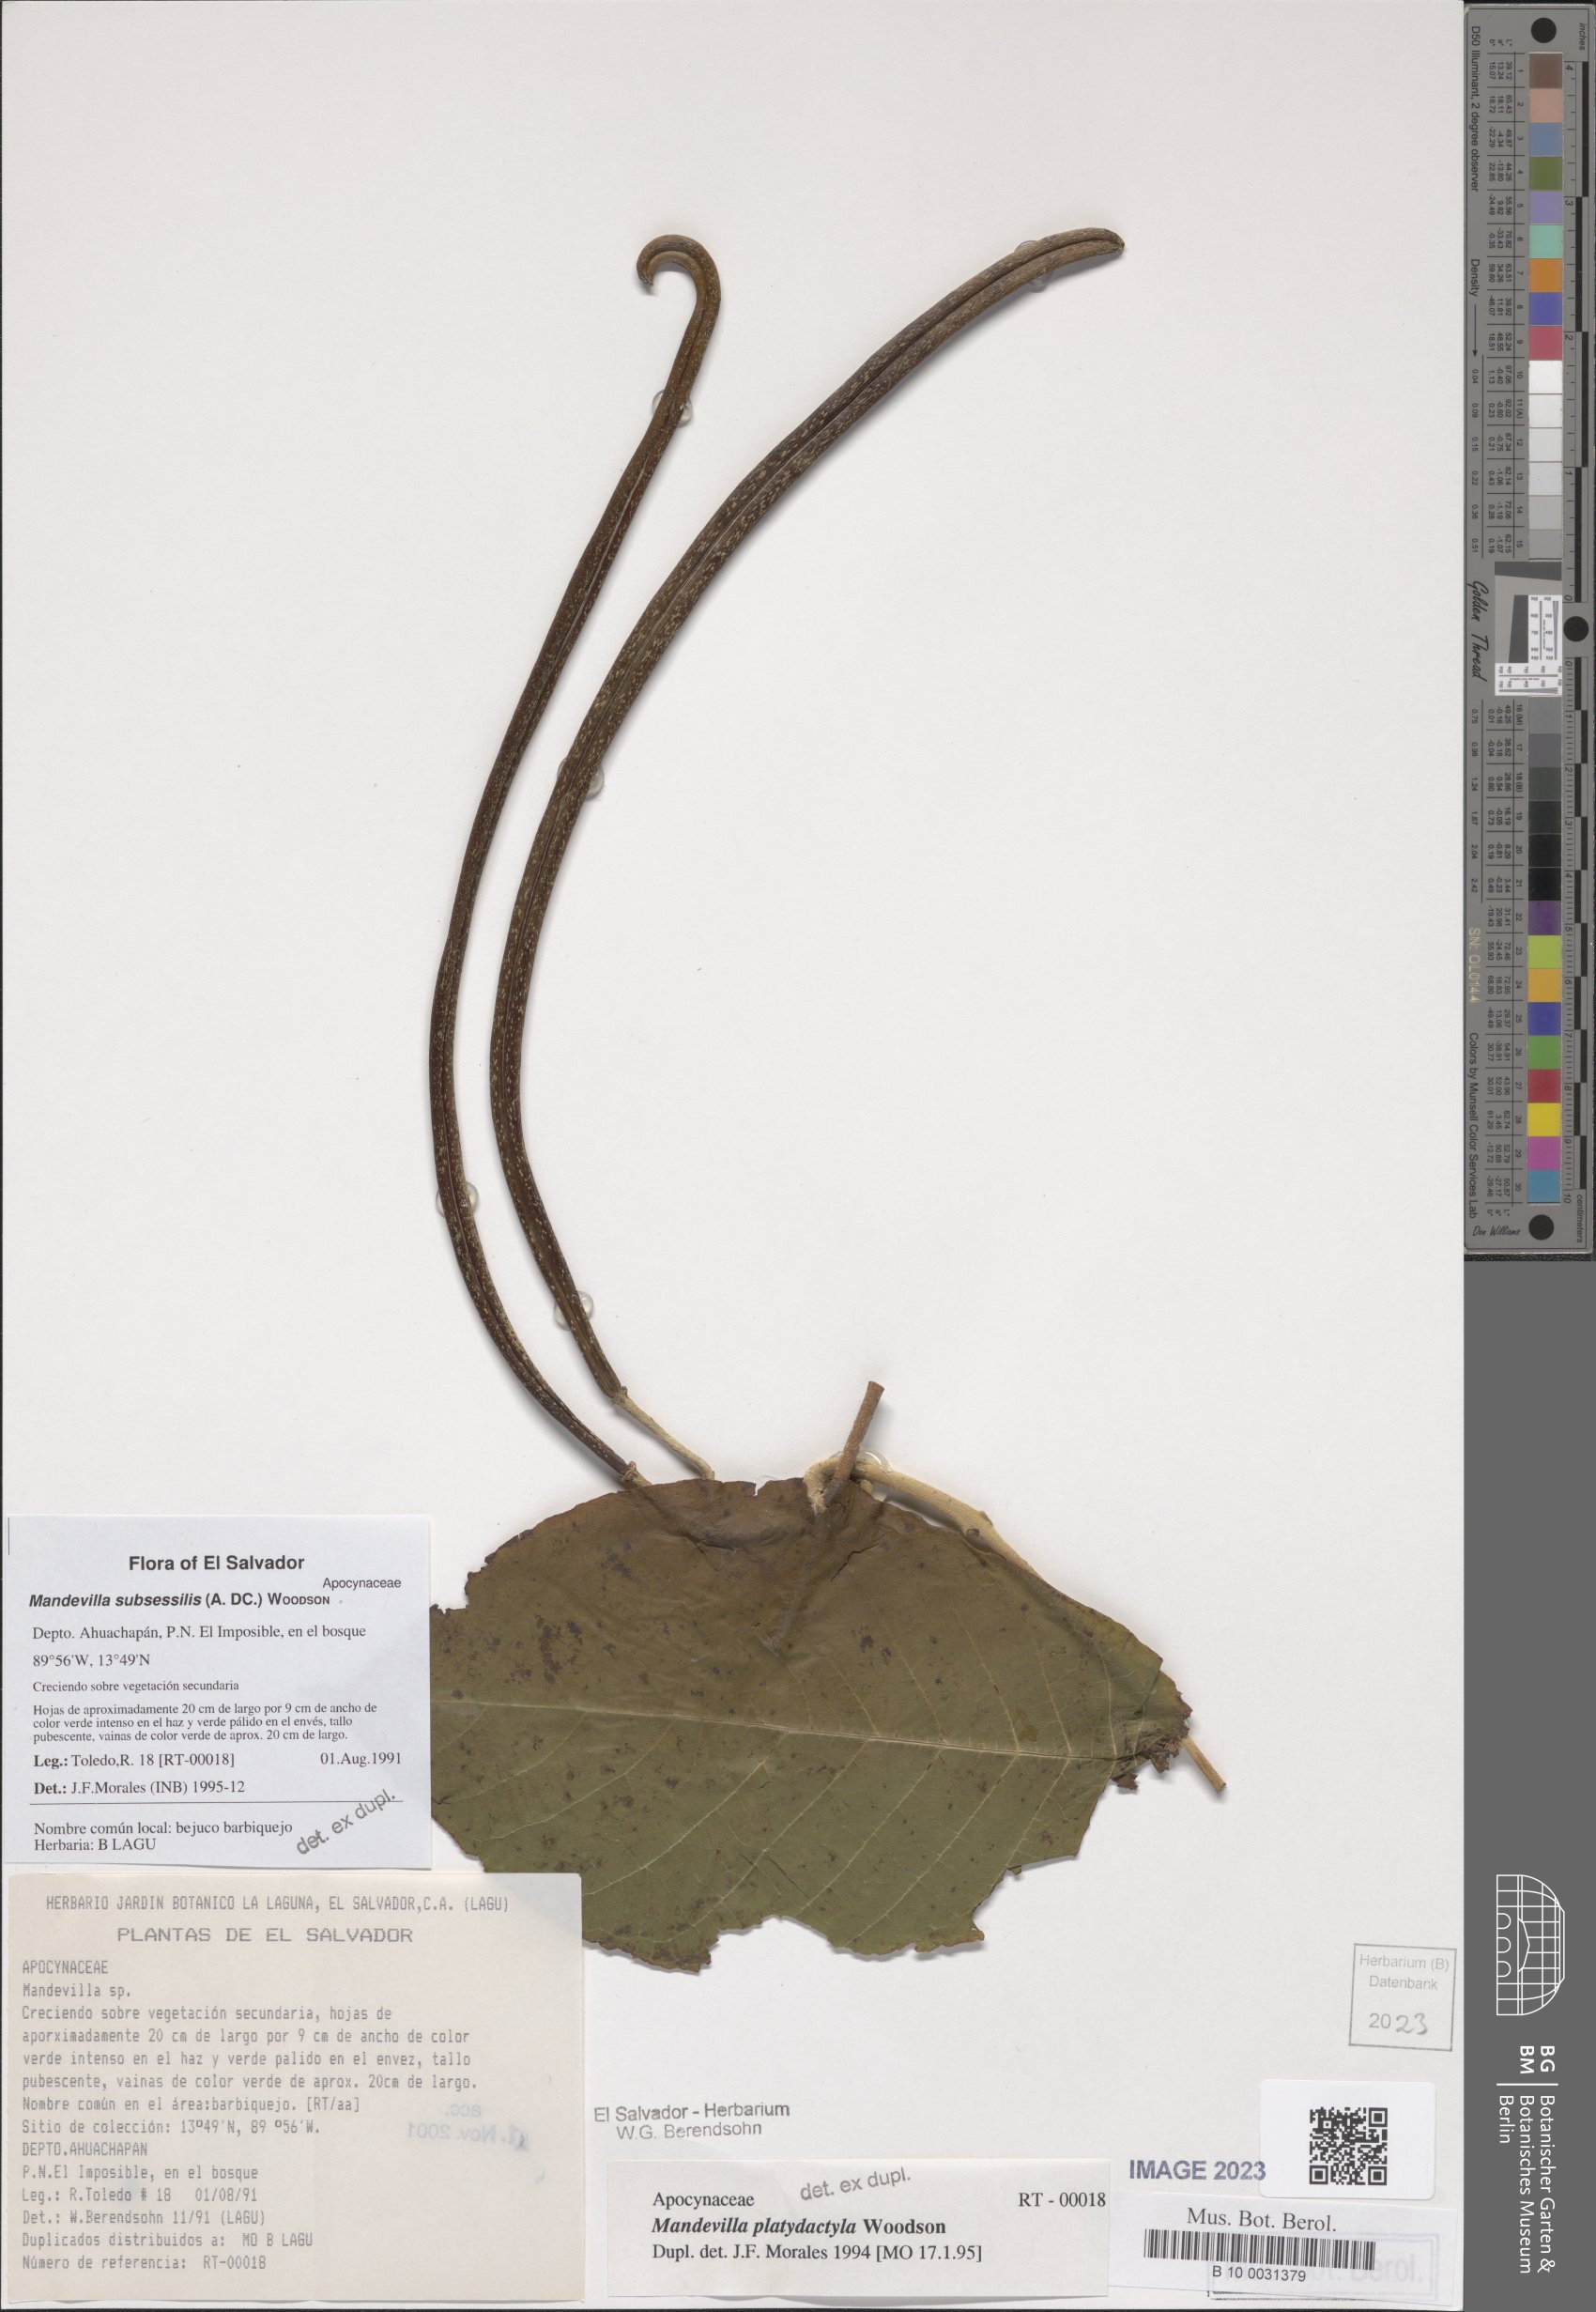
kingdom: Plantae
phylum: Tracheophyta
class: Magnoliopsida
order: Gentianales
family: Apocynaceae
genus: Mandevilla
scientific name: Mandevilla subsessilis
